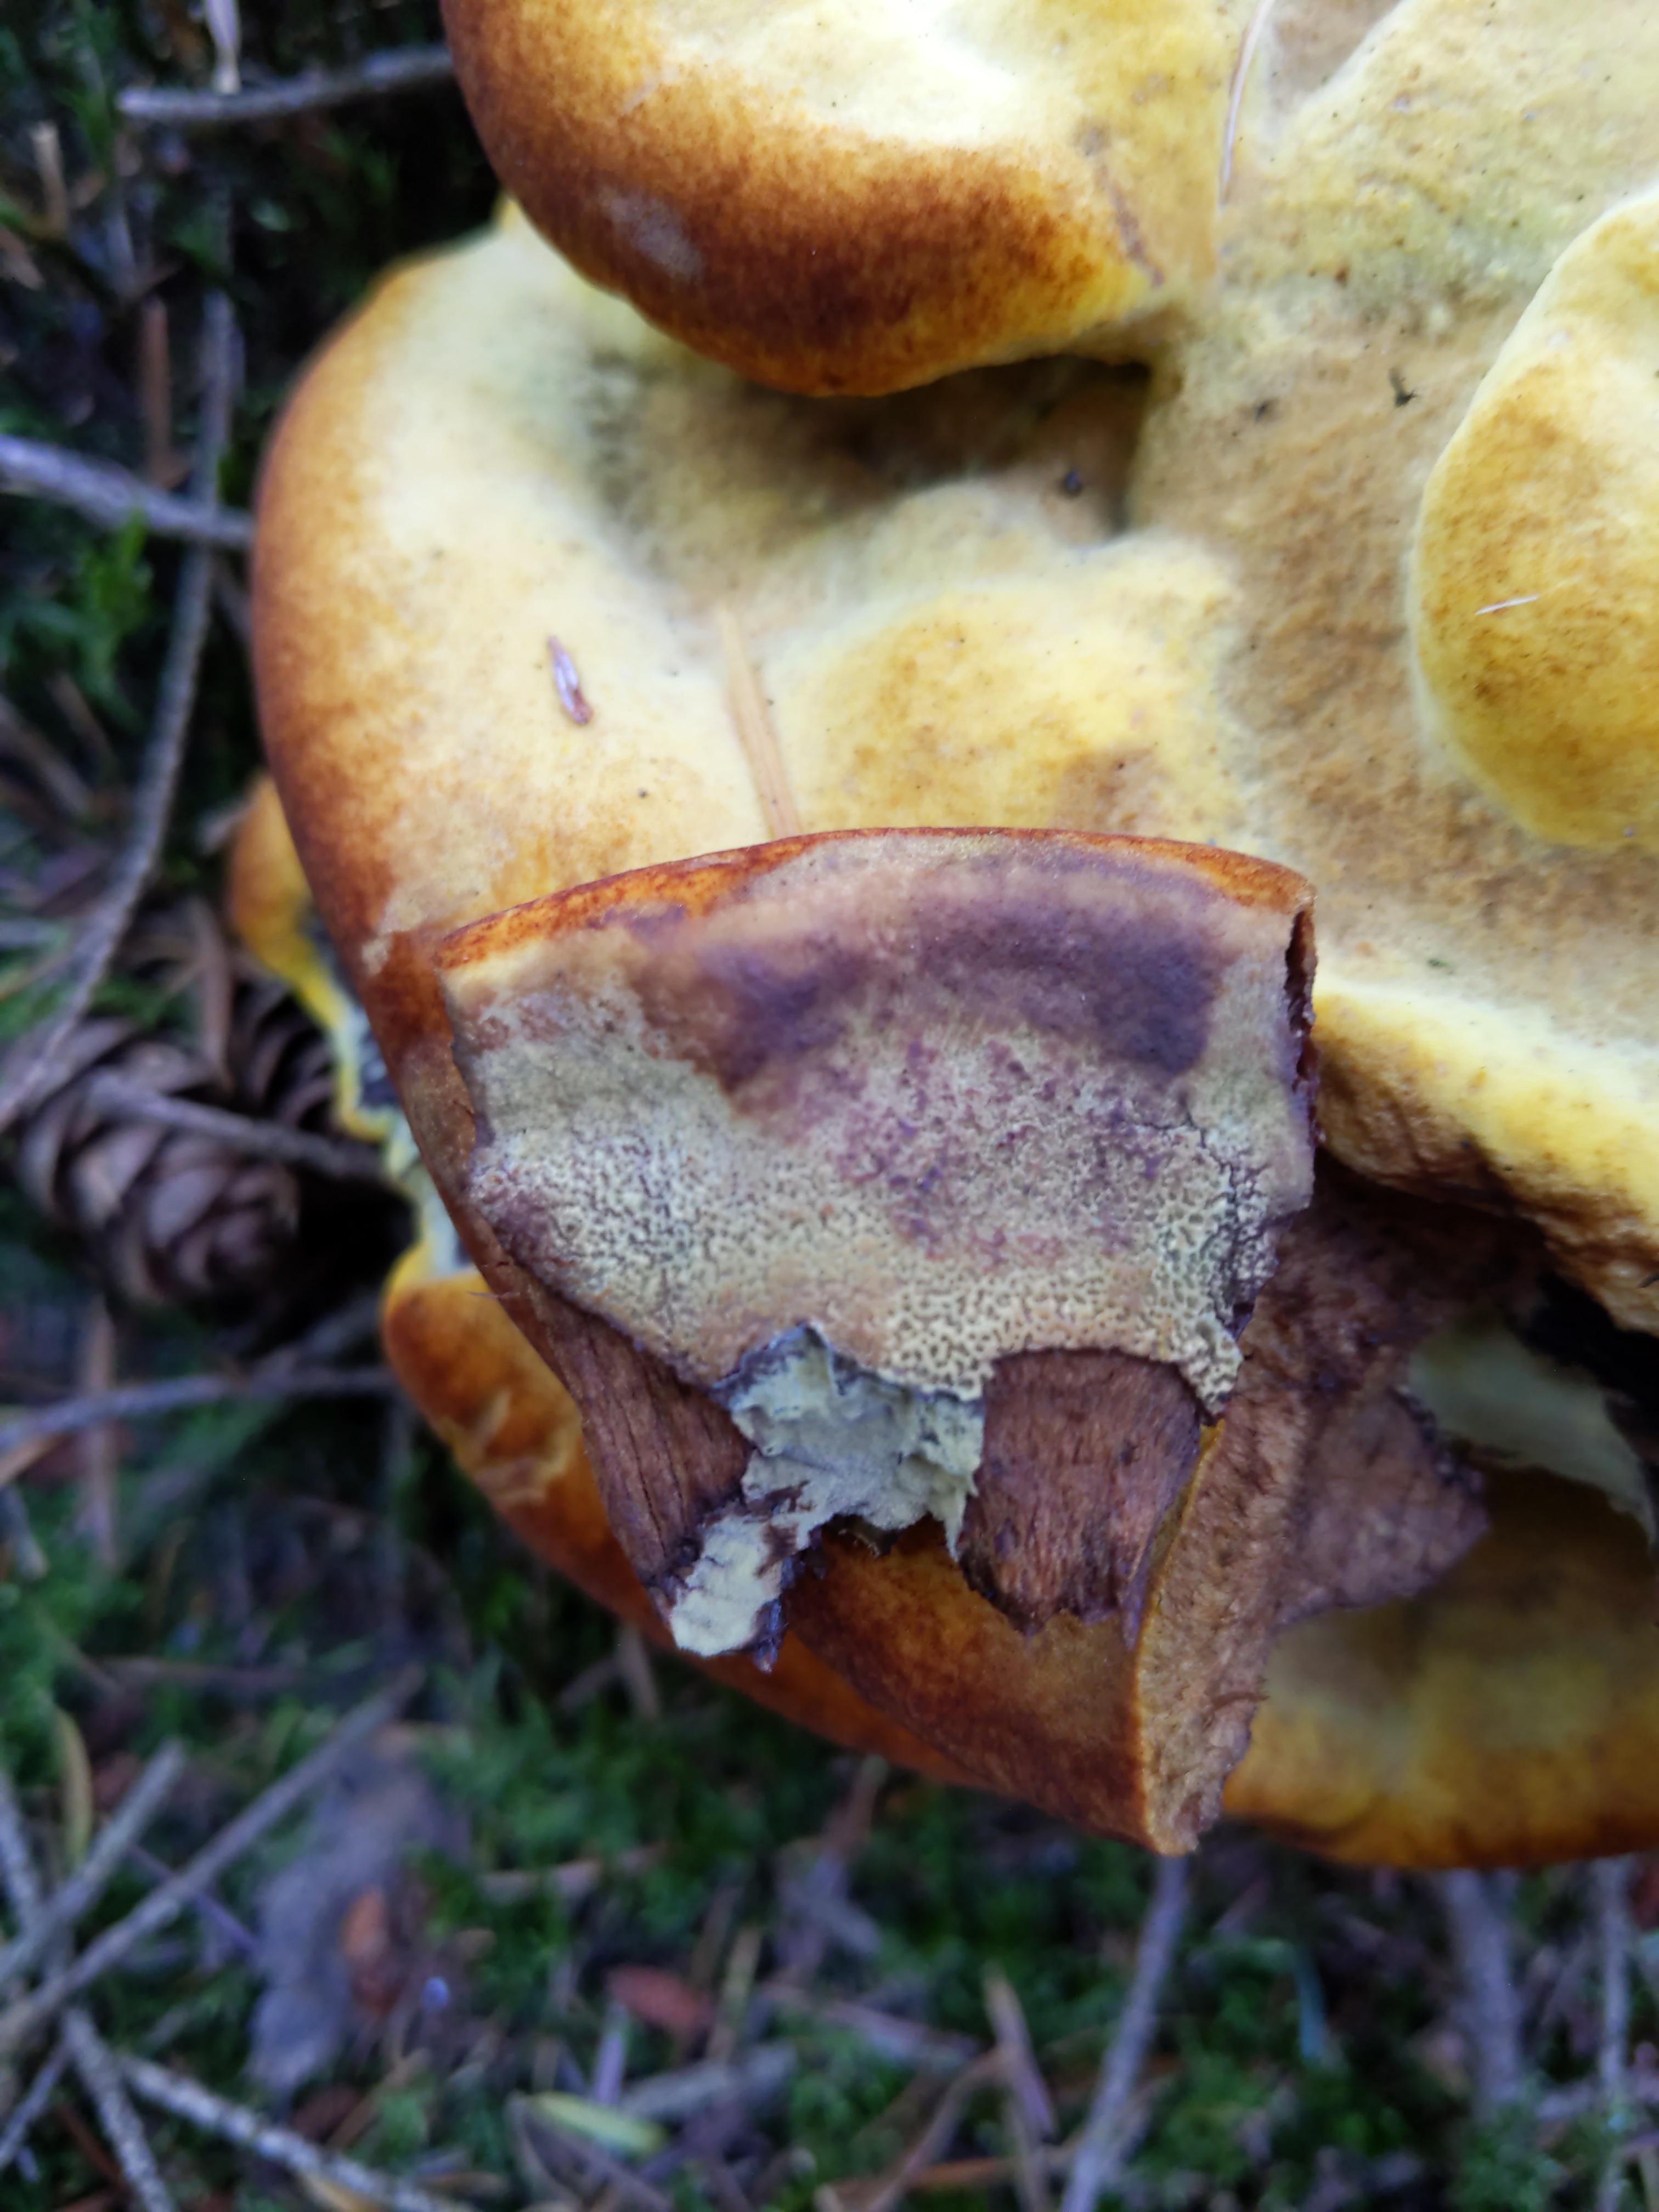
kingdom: Fungi
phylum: Basidiomycota
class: Agaricomycetes
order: Polyporales
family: Laetiporaceae
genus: Phaeolus
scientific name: Phaeolus schweinitzii
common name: brunporesvamp
